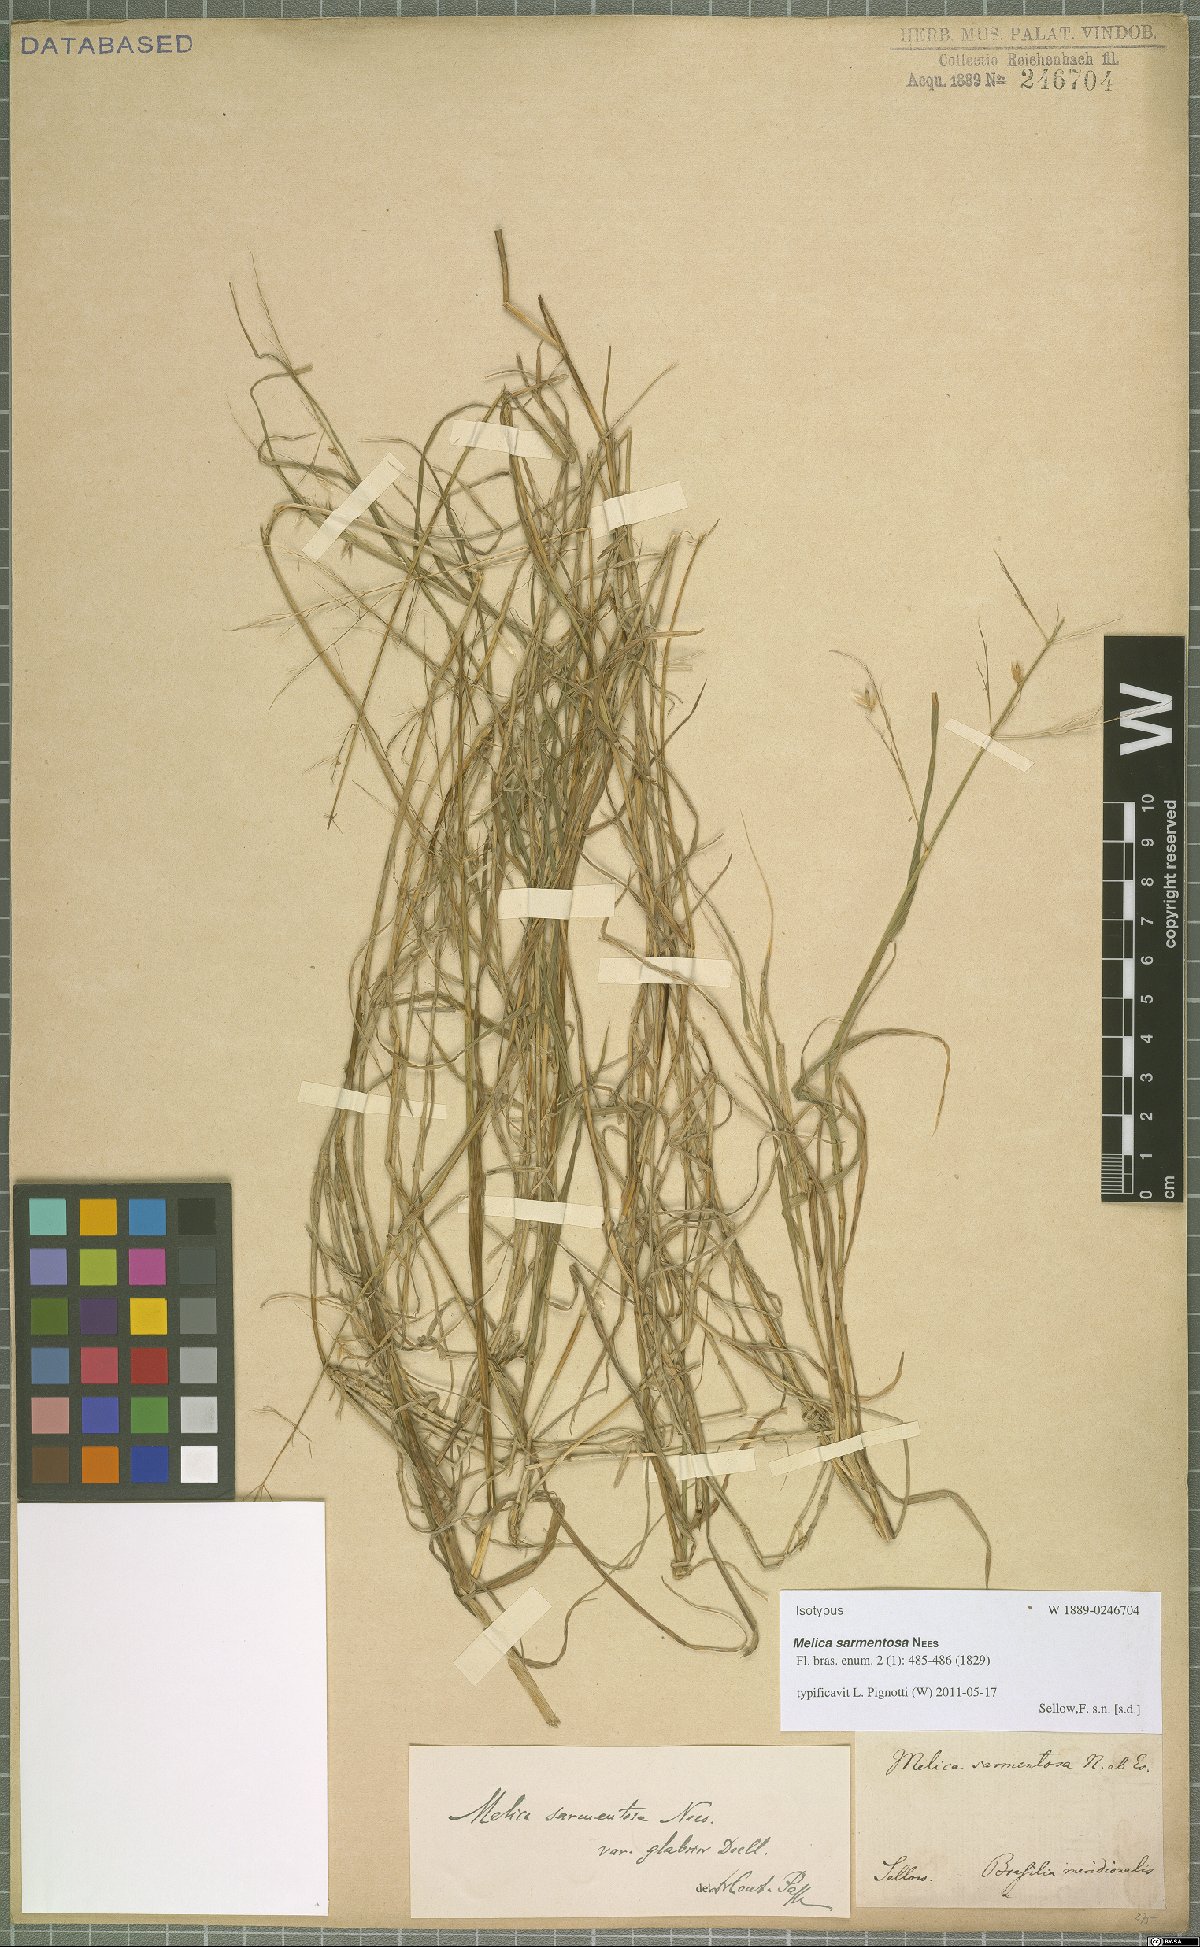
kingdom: Plantae
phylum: Tracheophyta
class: Liliopsida
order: Poales
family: Poaceae
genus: Melica
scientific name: Melica sarmentosa
